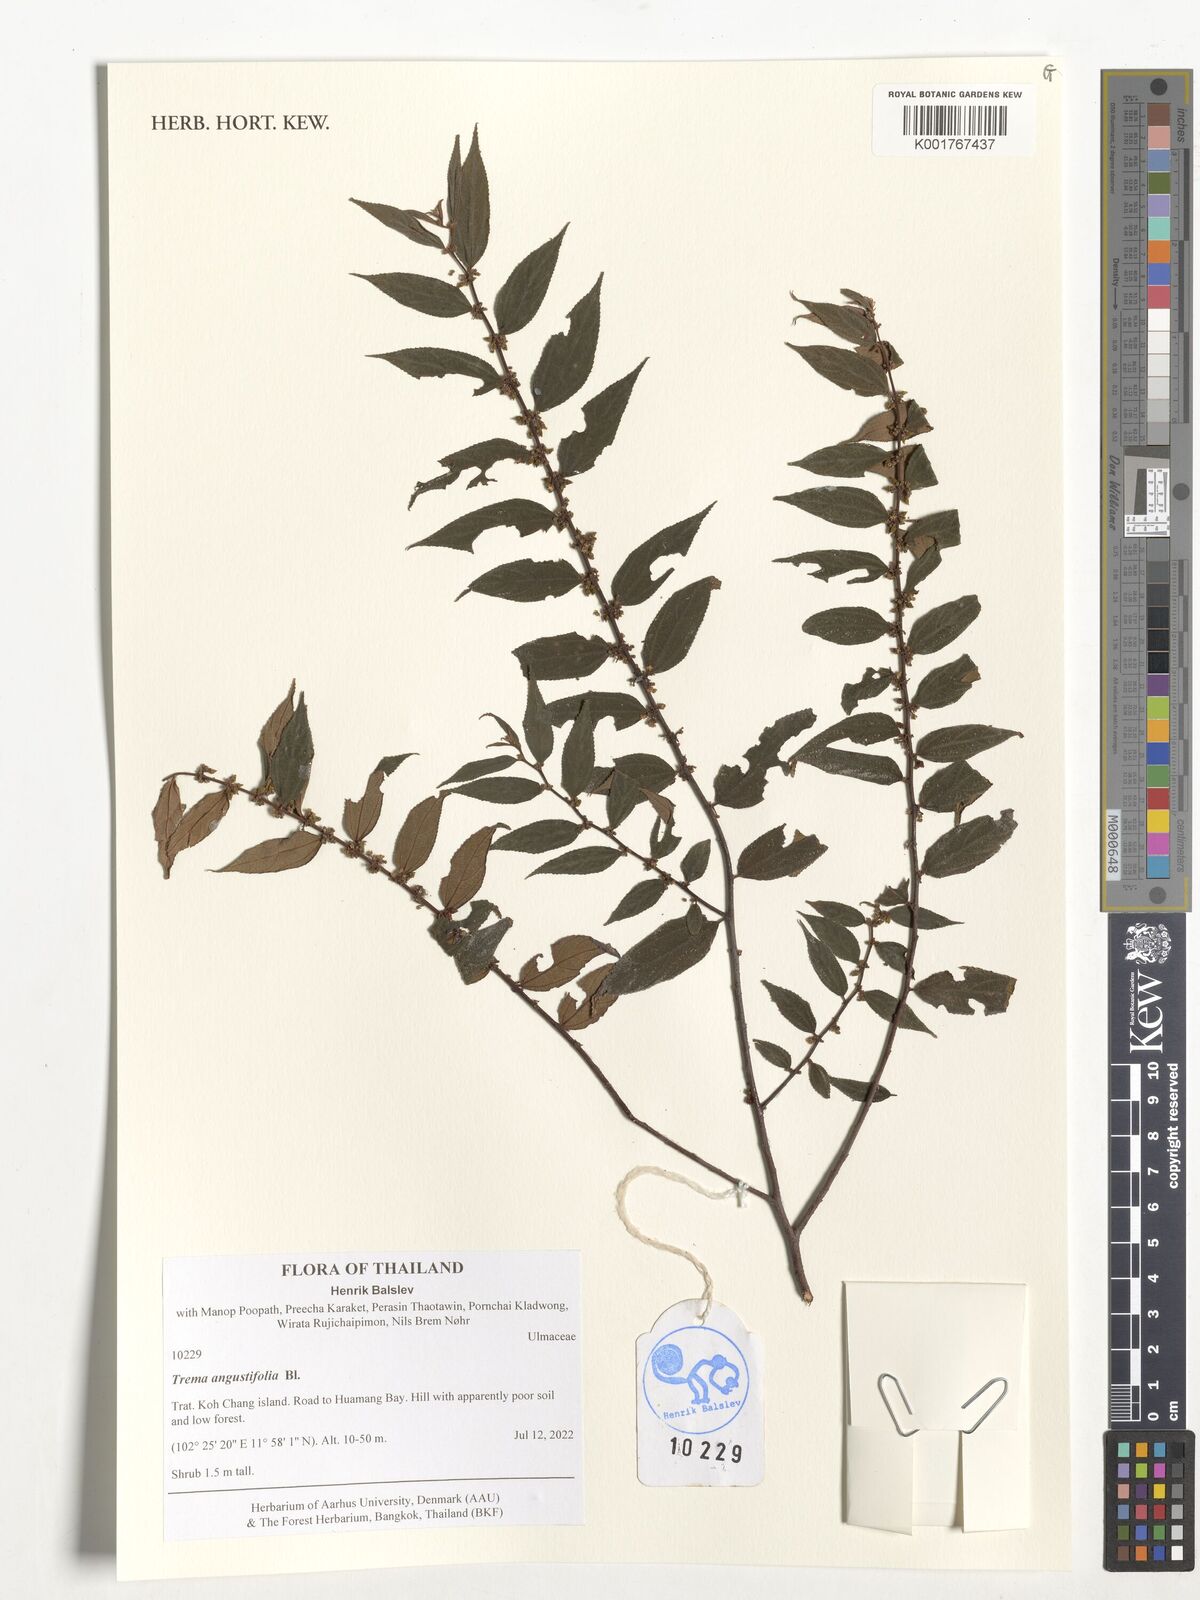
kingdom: Plantae
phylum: Tracheophyta
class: Magnoliopsida
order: Rosales
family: Cannabaceae
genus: Trema
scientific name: Trema angustifolium
